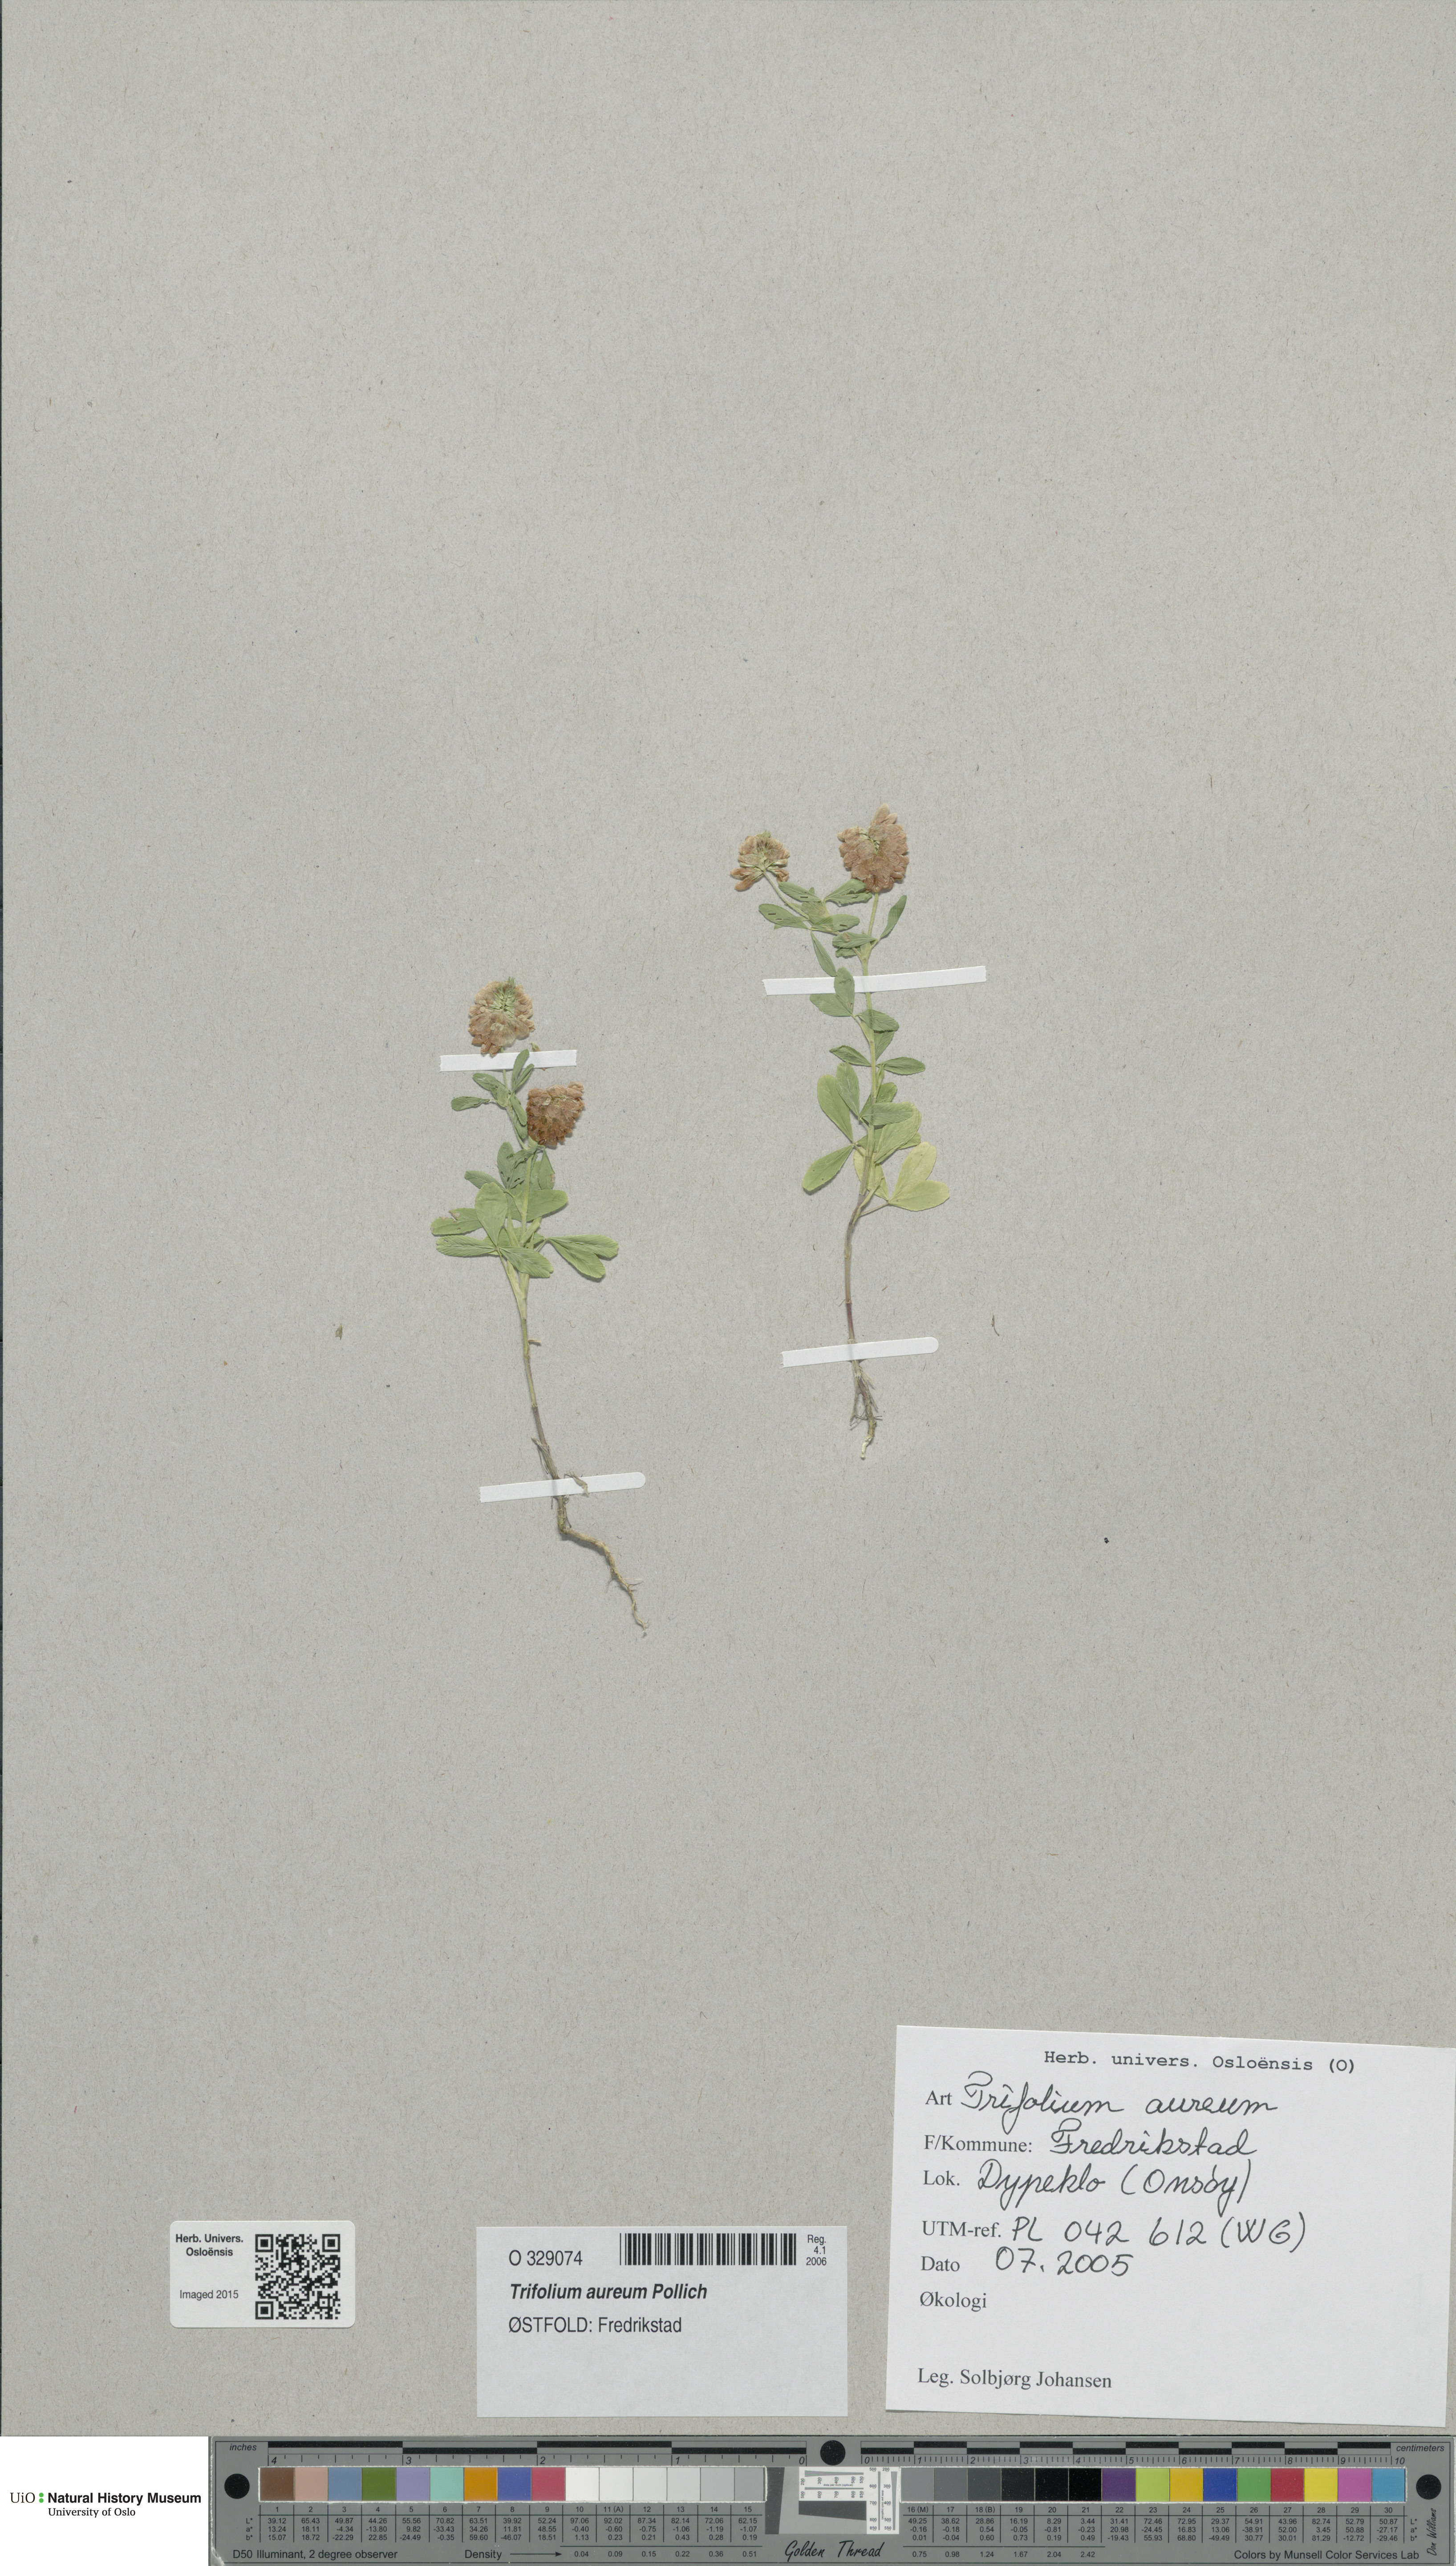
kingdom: Plantae
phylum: Tracheophyta
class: Magnoliopsida
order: Fabales
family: Fabaceae
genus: Trifolium
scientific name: Trifolium aureum
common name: Golden clover
